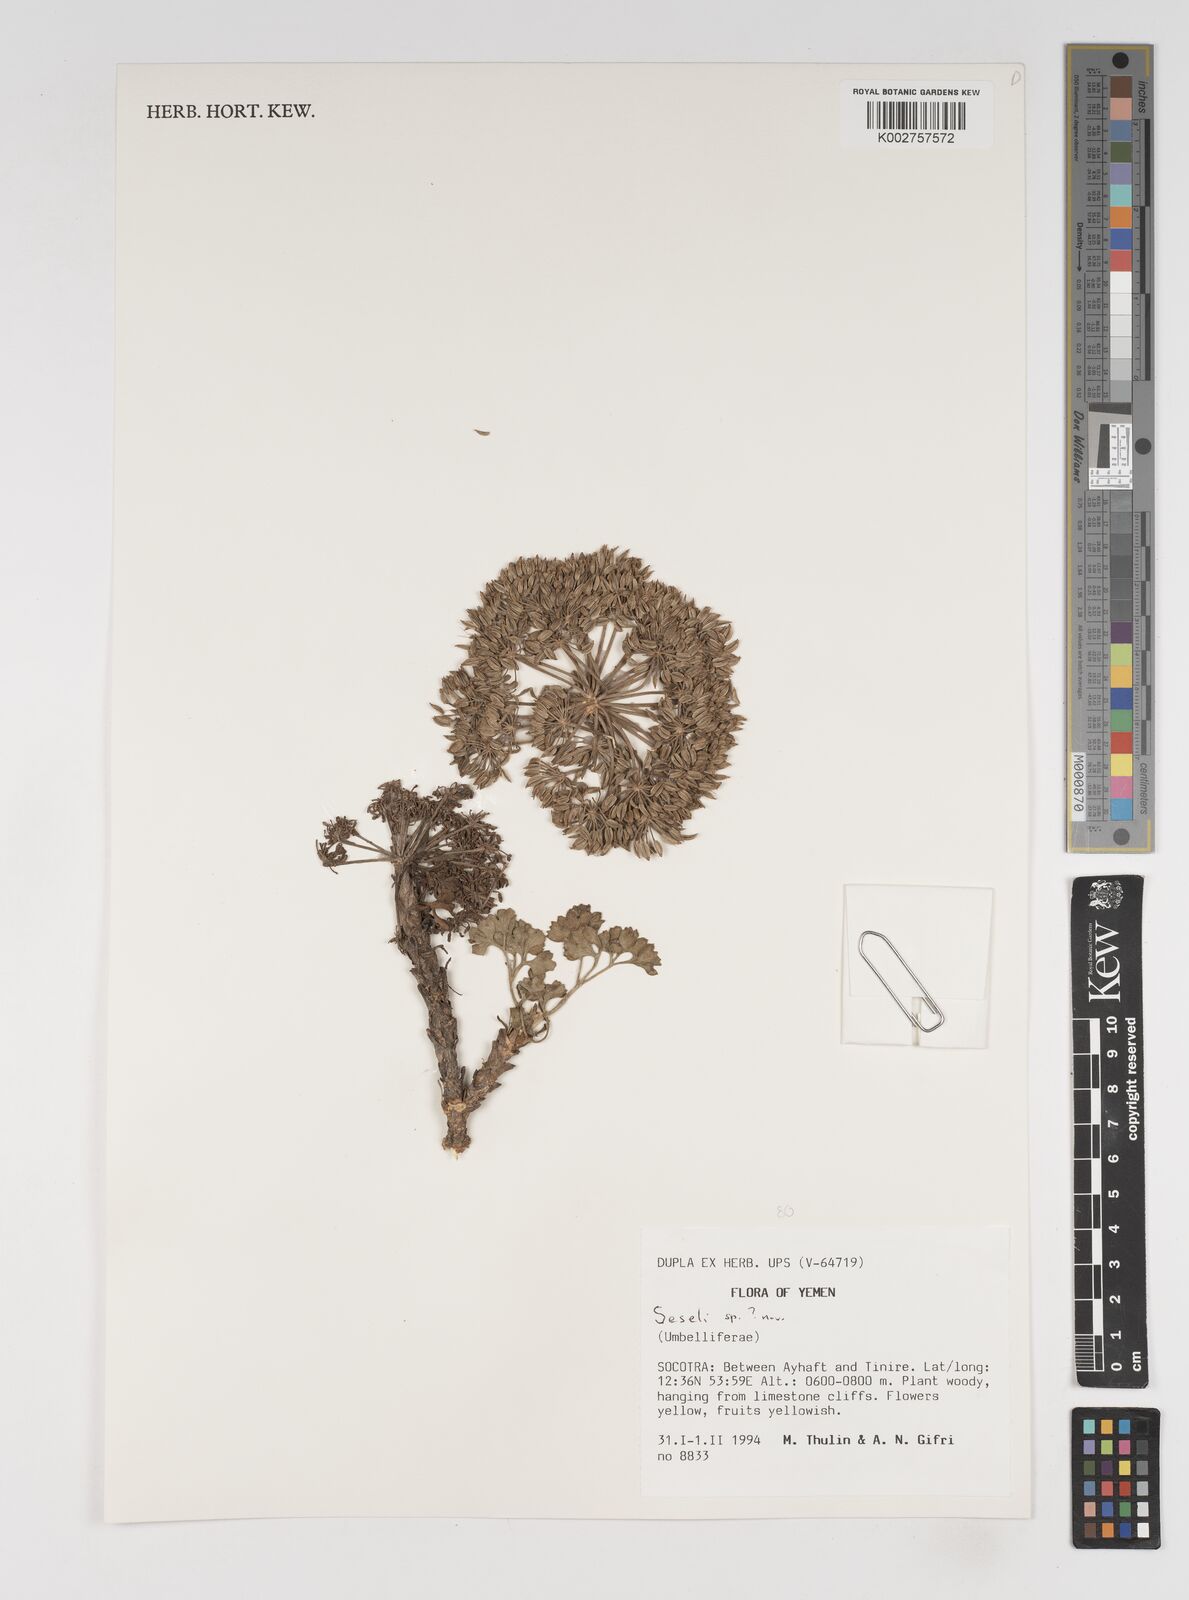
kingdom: Plantae
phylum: Tracheophyta
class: Magnoliopsida
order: Apiales
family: Apiaceae
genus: Seseli
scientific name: Seseli
